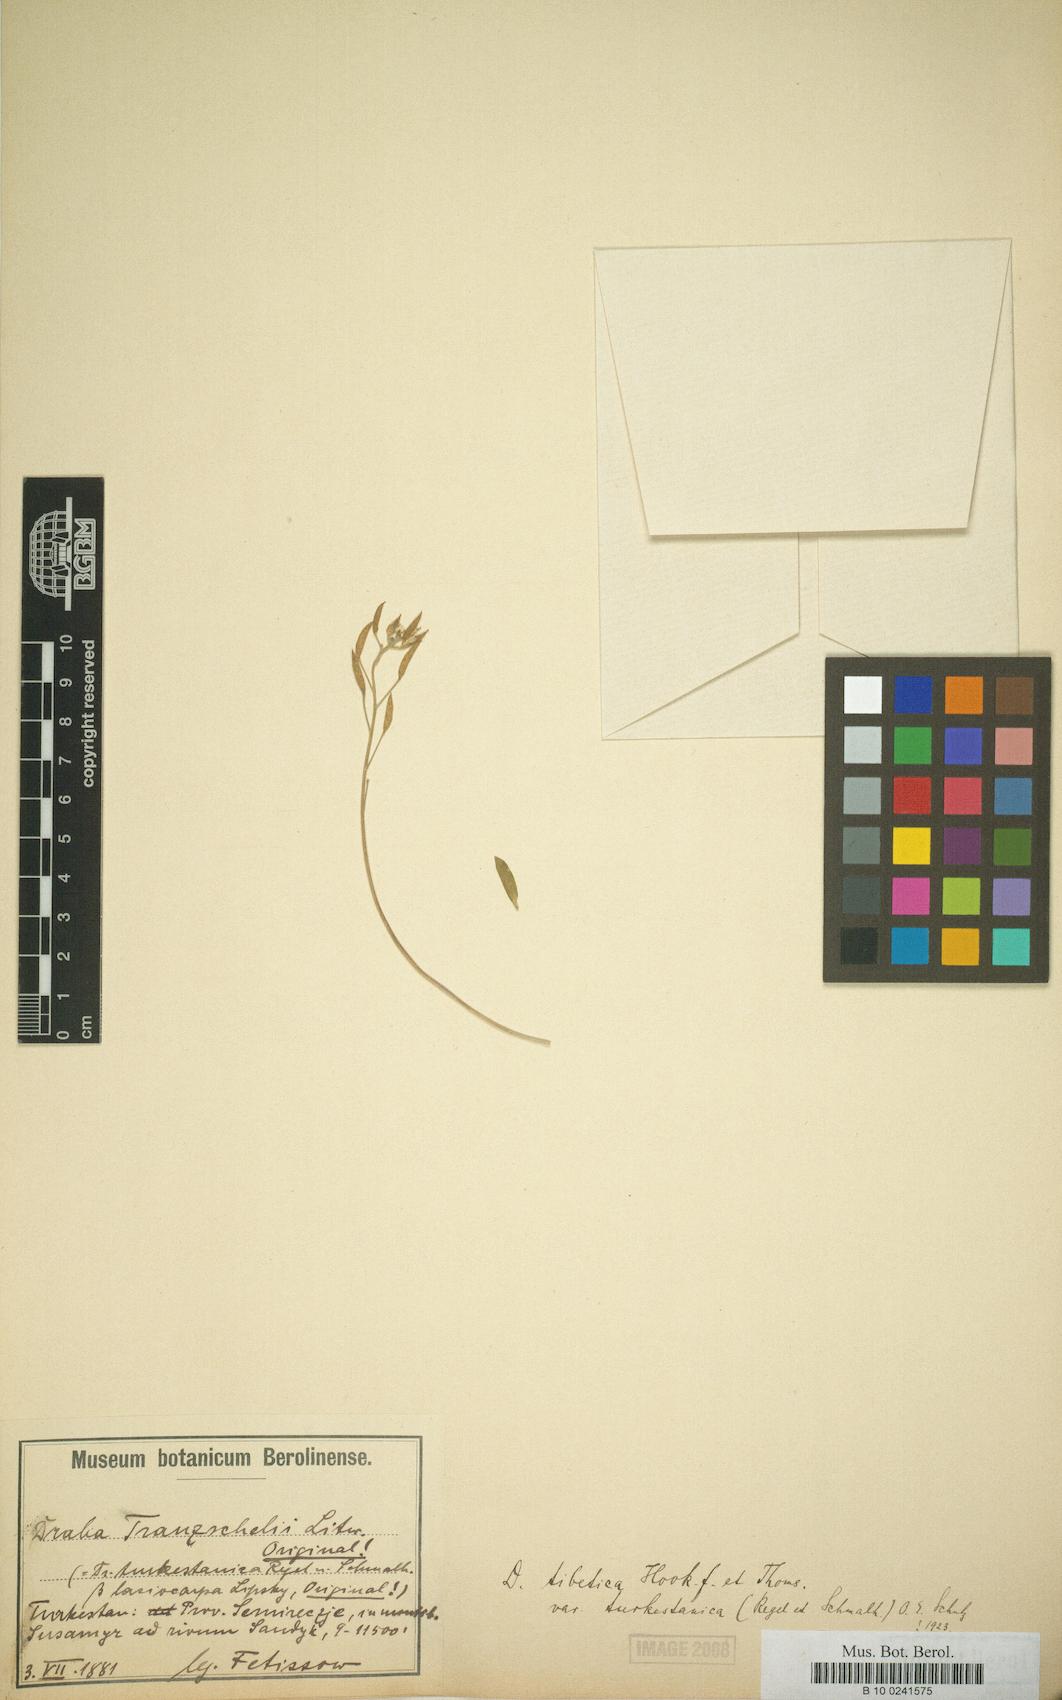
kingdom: Plantae
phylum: Tracheophyta
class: Magnoliopsida
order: Brassicales
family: Brassicaceae
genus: Draba
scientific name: Draba tibetica
